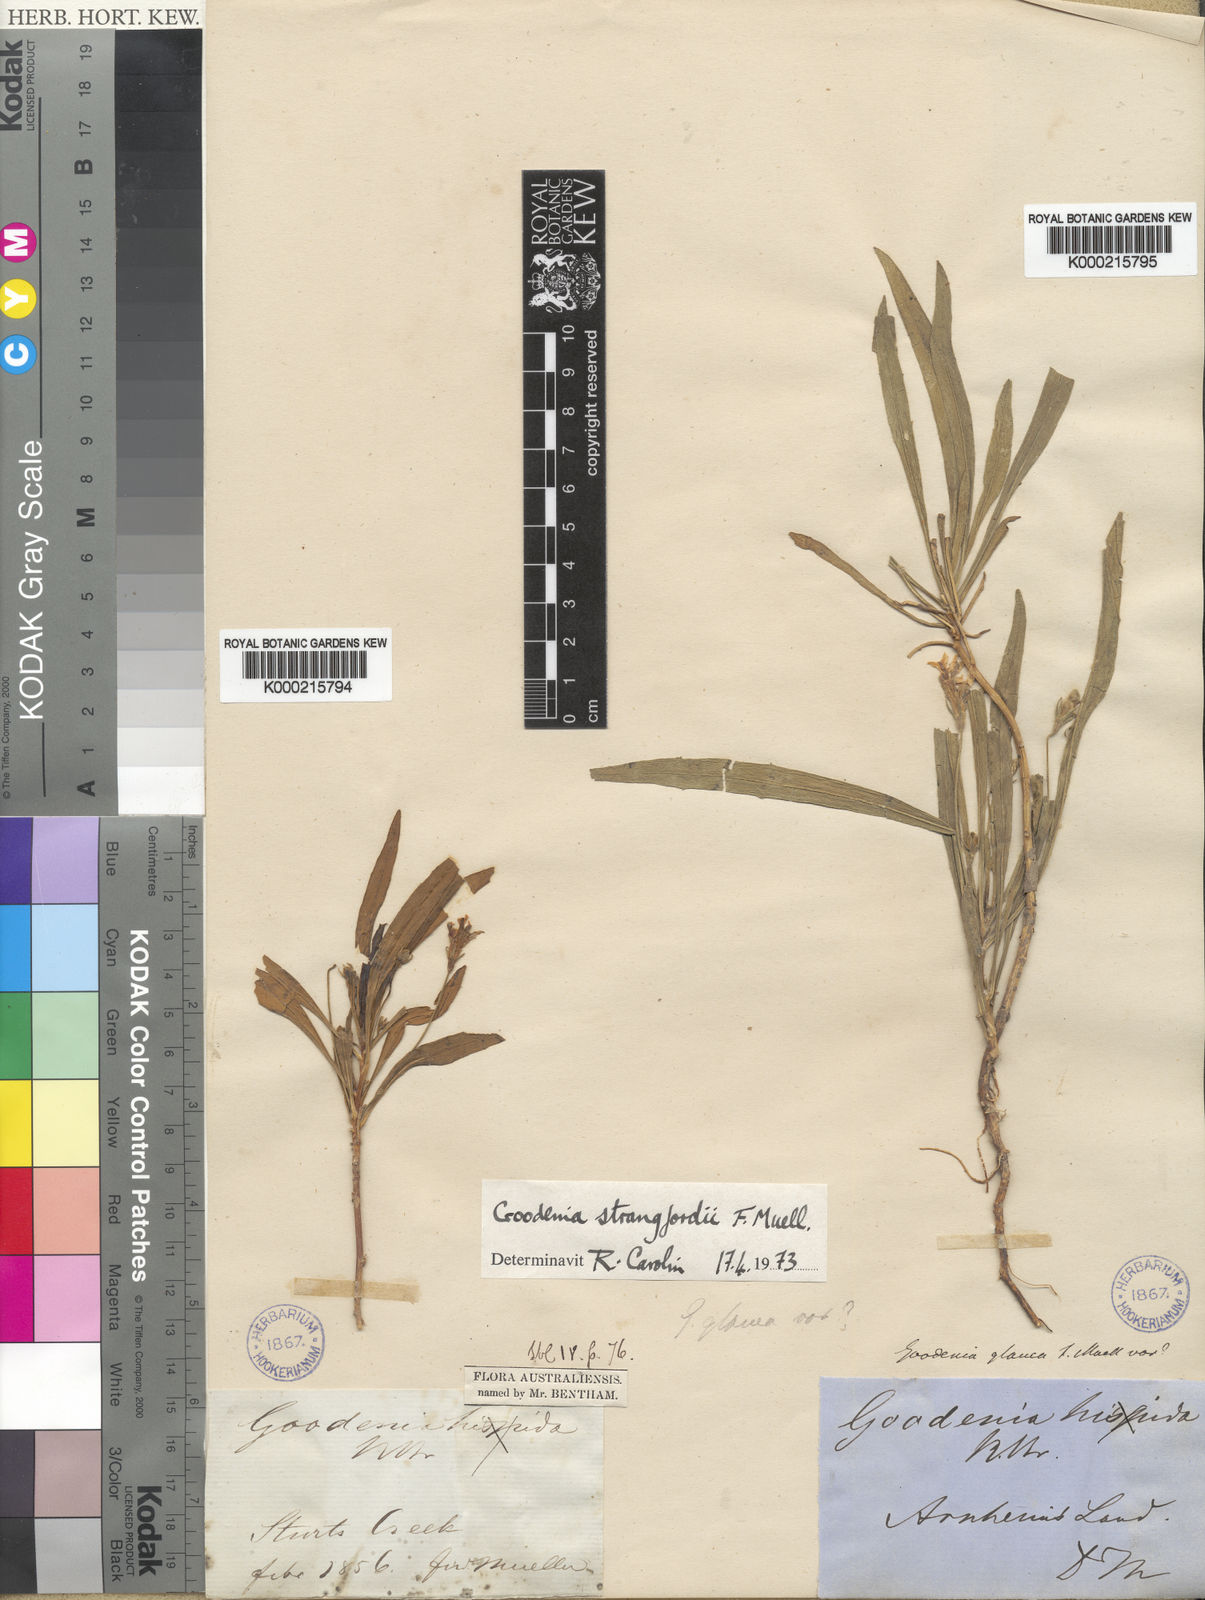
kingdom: Plantae
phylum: Tracheophyta
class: Magnoliopsida
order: Asterales
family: Goodeniaceae
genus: Goodenia
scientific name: Goodenia strangfordii
